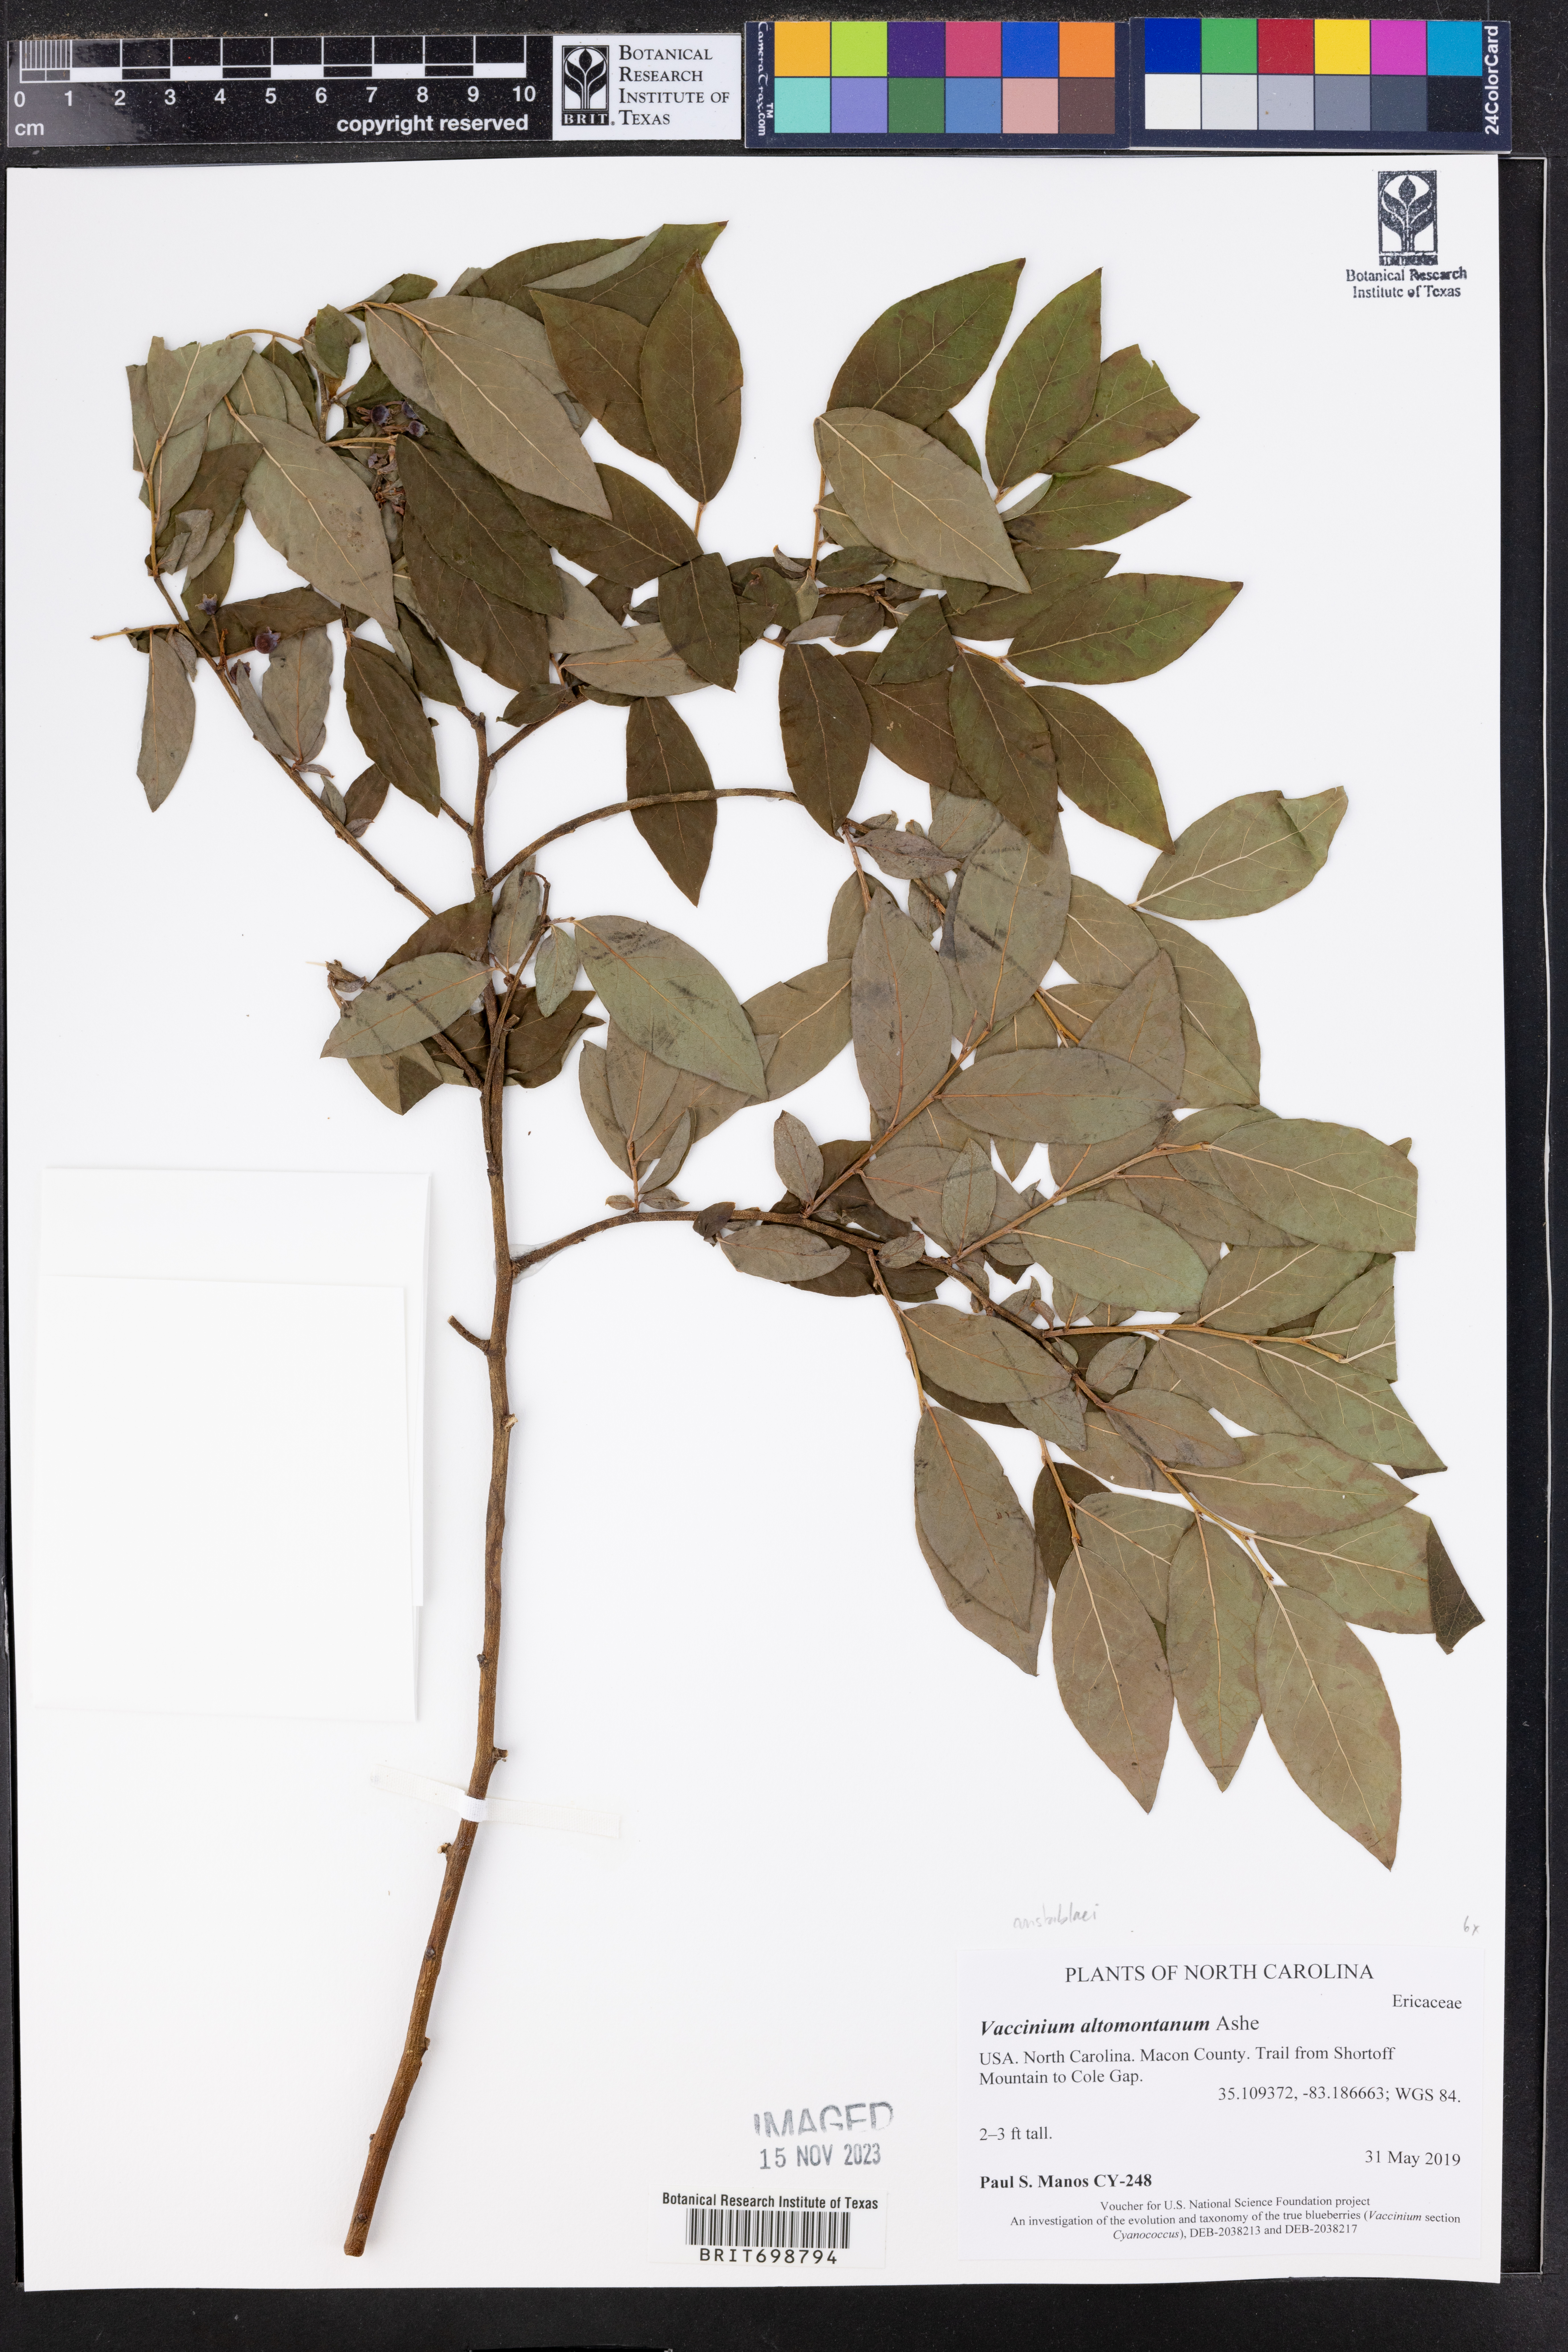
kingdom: Plantae
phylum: Tracheophyta
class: Magnoliopsida
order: Ericales
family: Ericaceae
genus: Vaccinium
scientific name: Vaccinium pallidum
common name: Blue ridge blueberry
